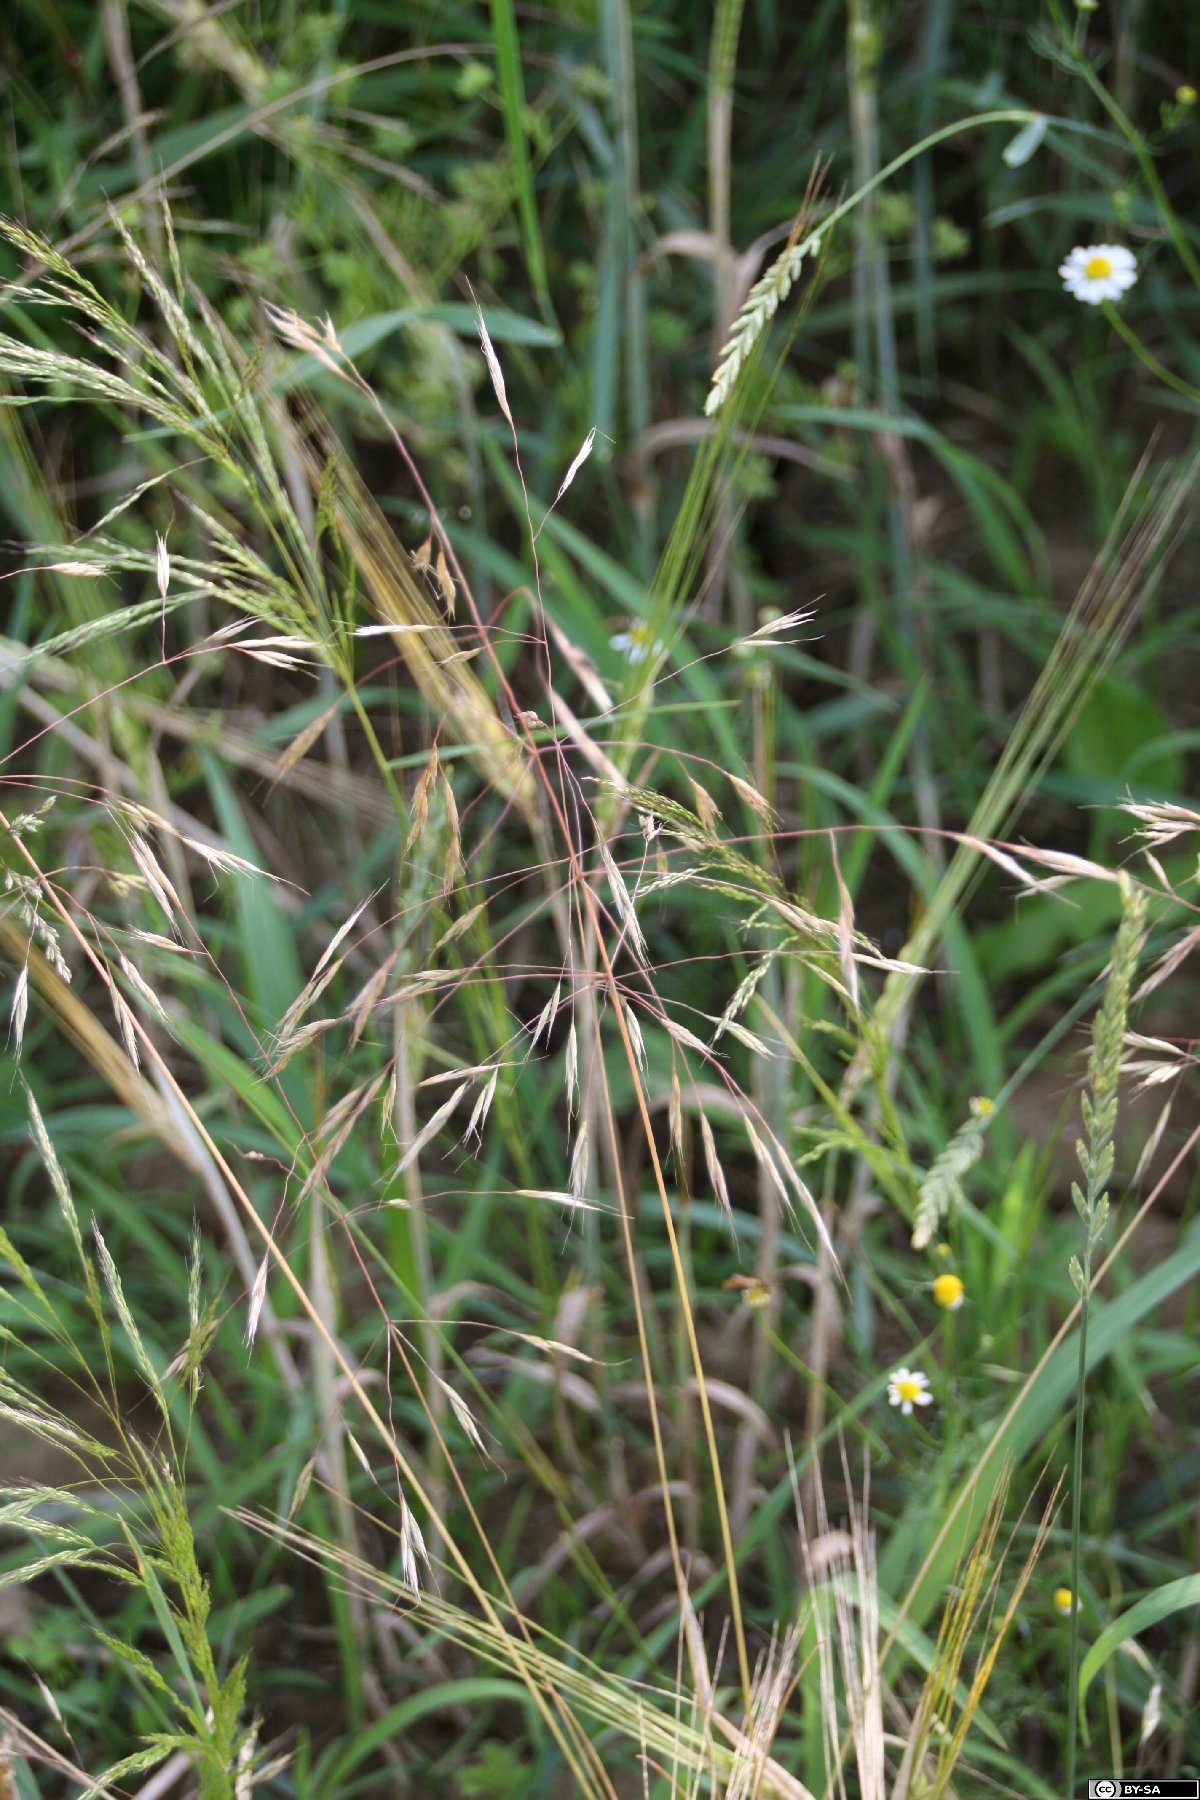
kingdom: Plantae
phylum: Tracheophyta
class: Liliopsida
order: Poales
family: Poaceae
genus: Ventenata
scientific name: Ventenata dubia
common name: North africa grass
